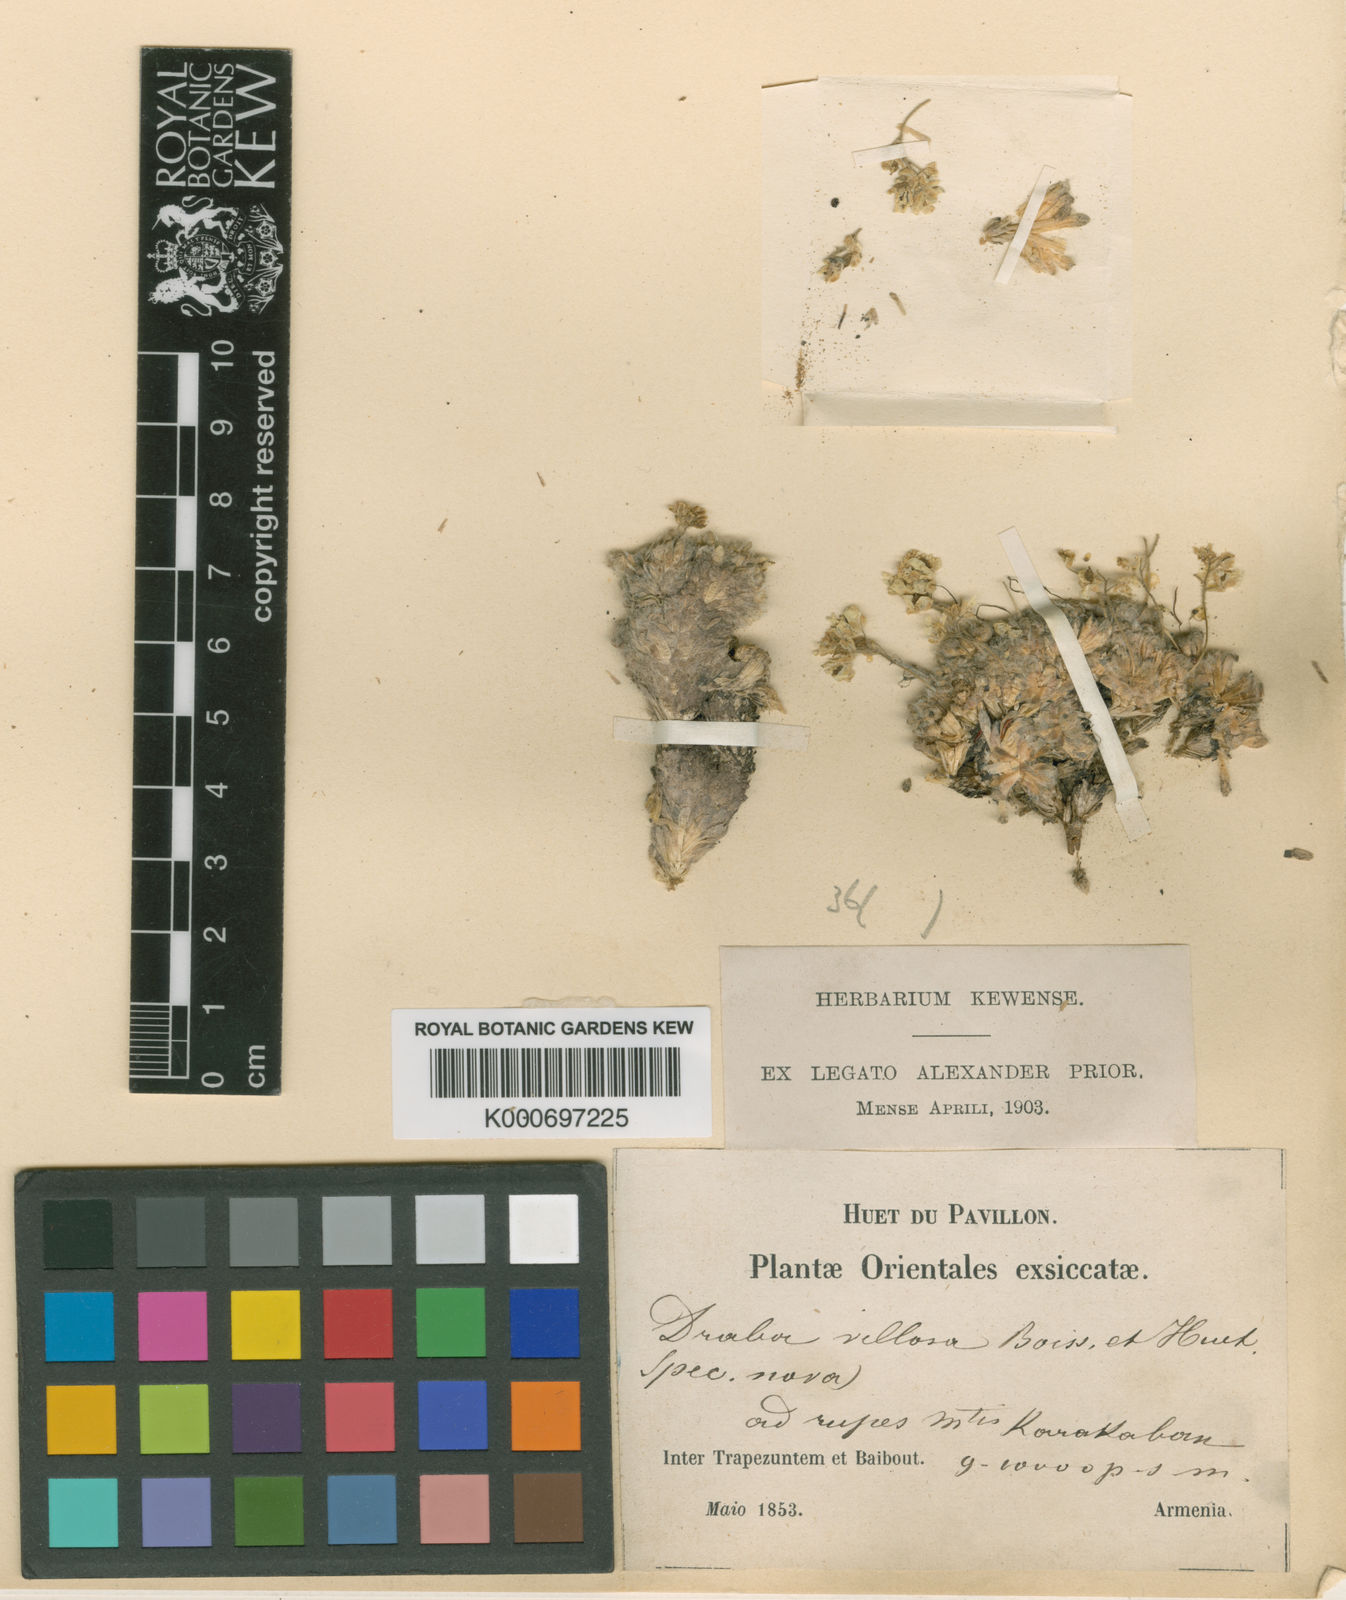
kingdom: Plantae
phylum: Tracheophyta
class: Magnoliopsida
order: Brassicales
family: Brassicaceae
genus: Draba
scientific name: Draba polytricha
